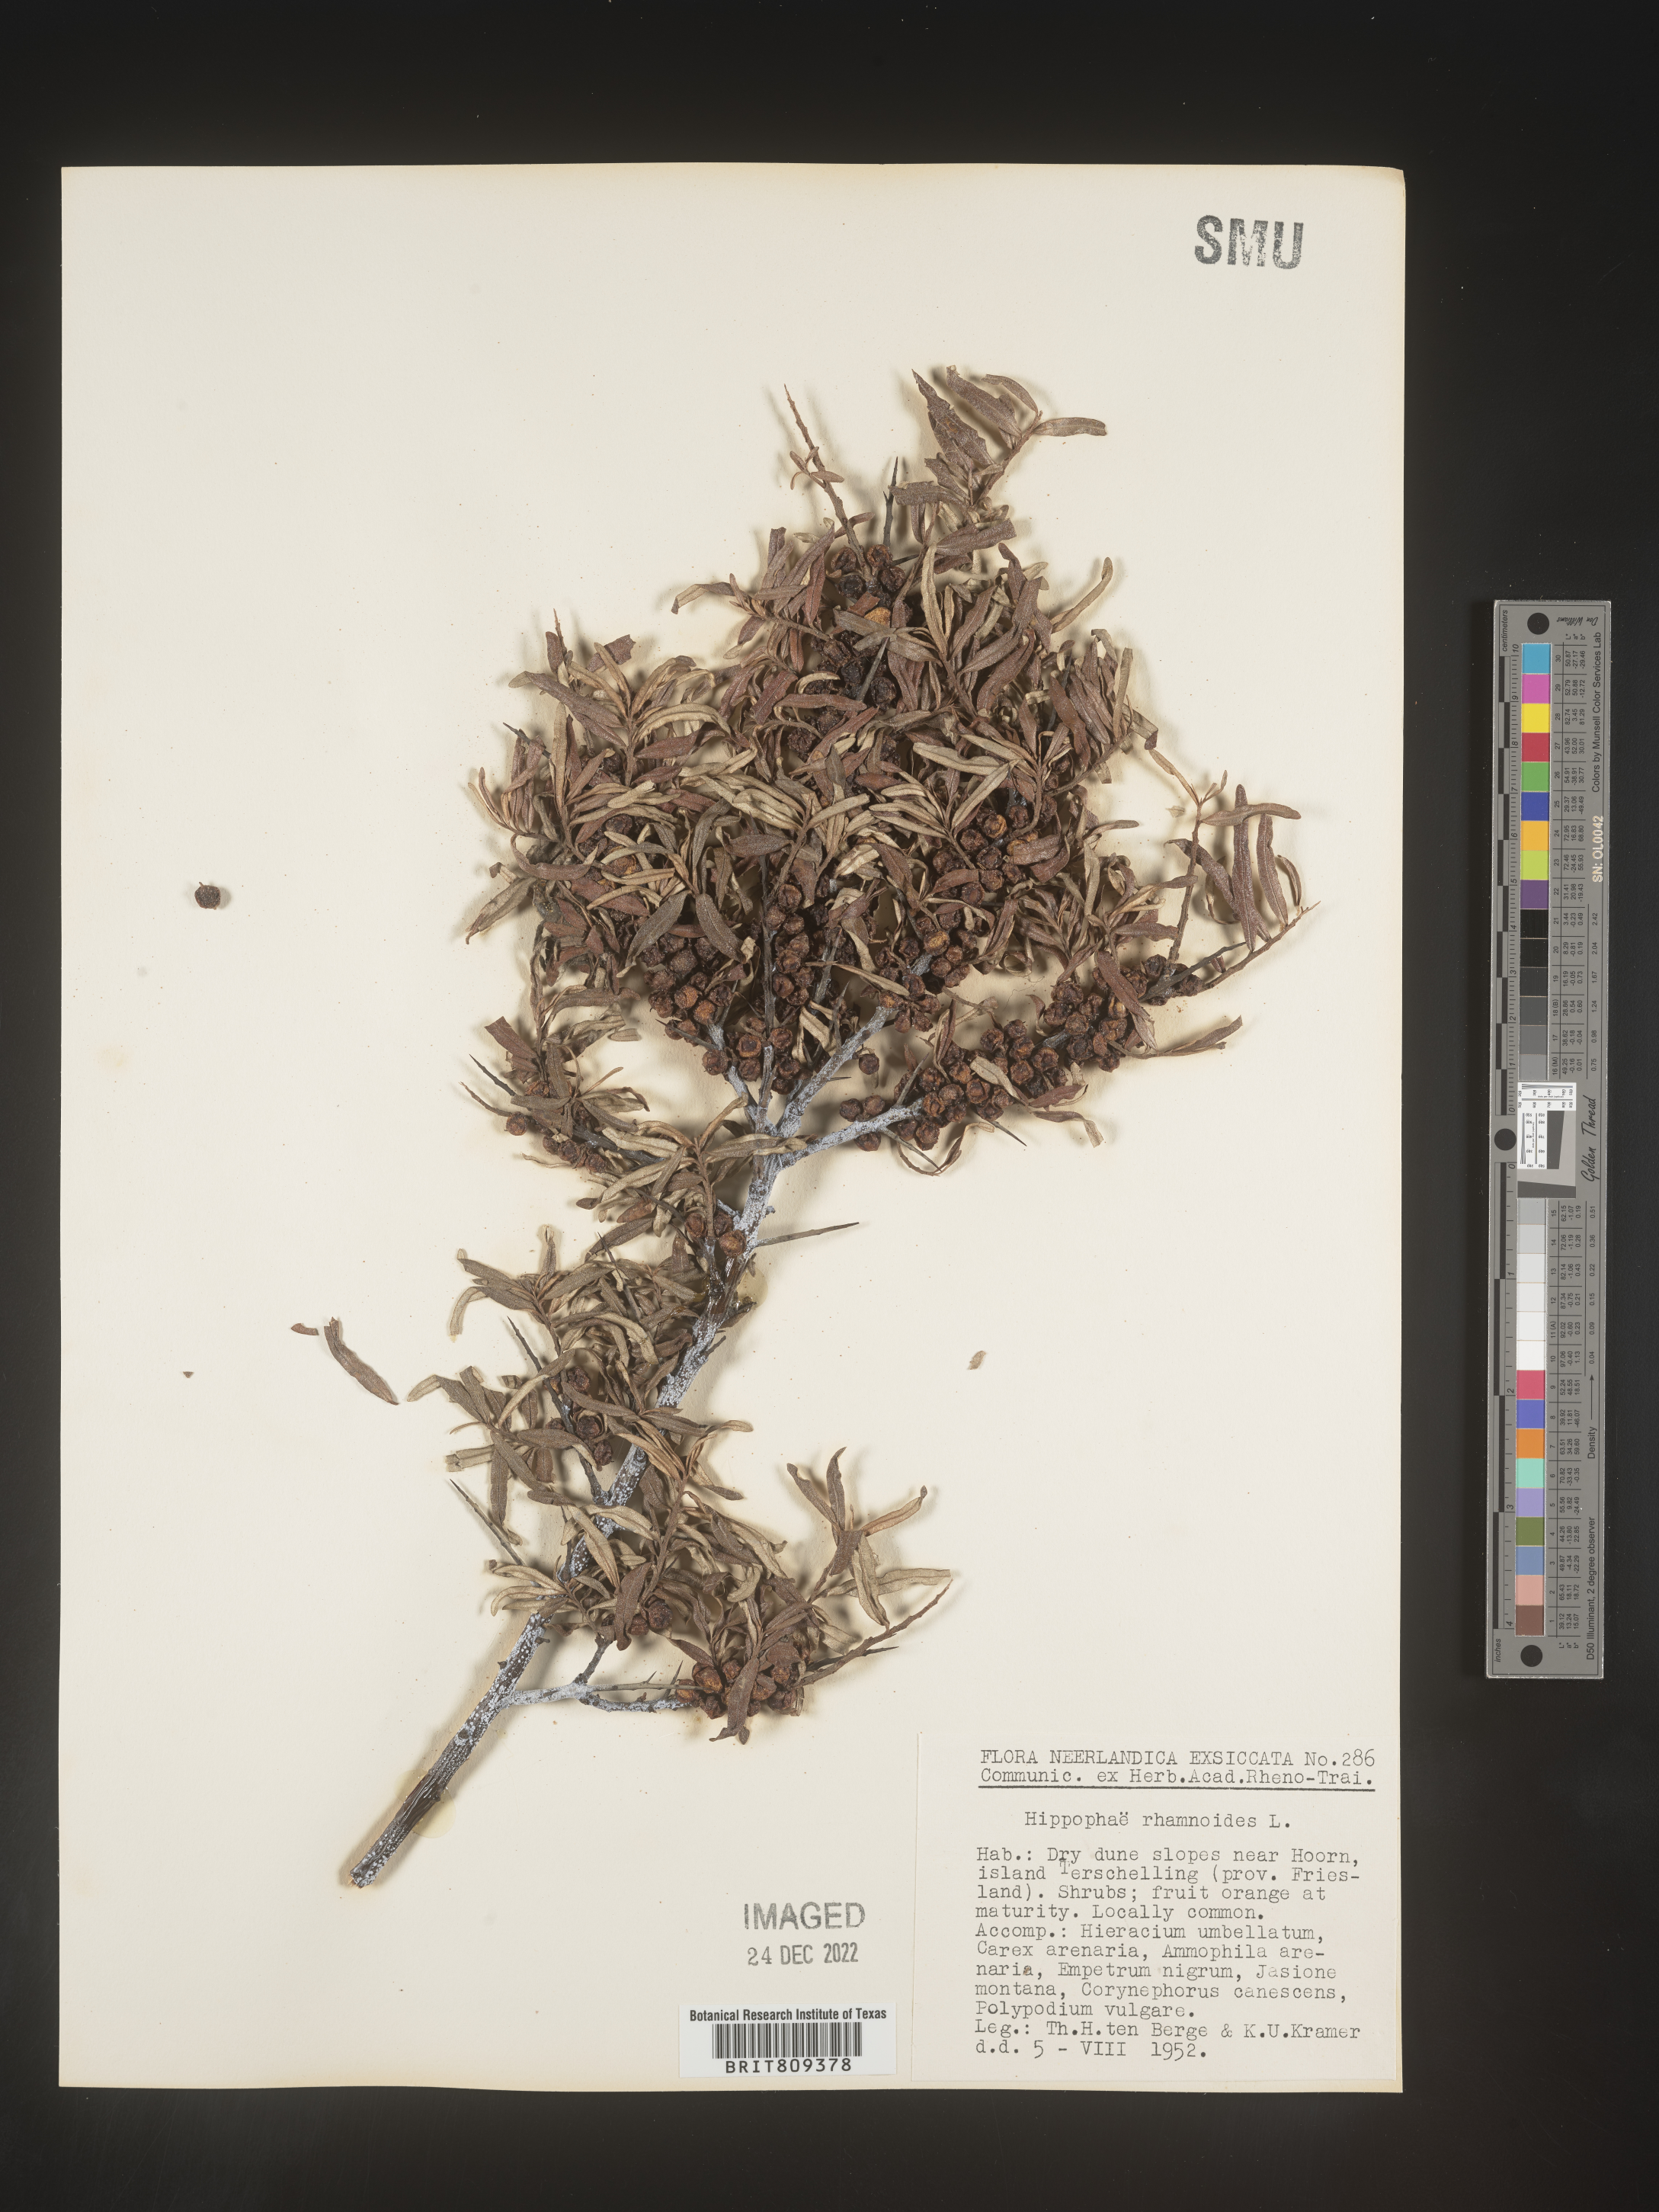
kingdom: Plantae
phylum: Tracheophyta
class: Magnoliopsida
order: Rosales
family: Elaeagnaceae
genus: Hippophae
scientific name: Hippophae
